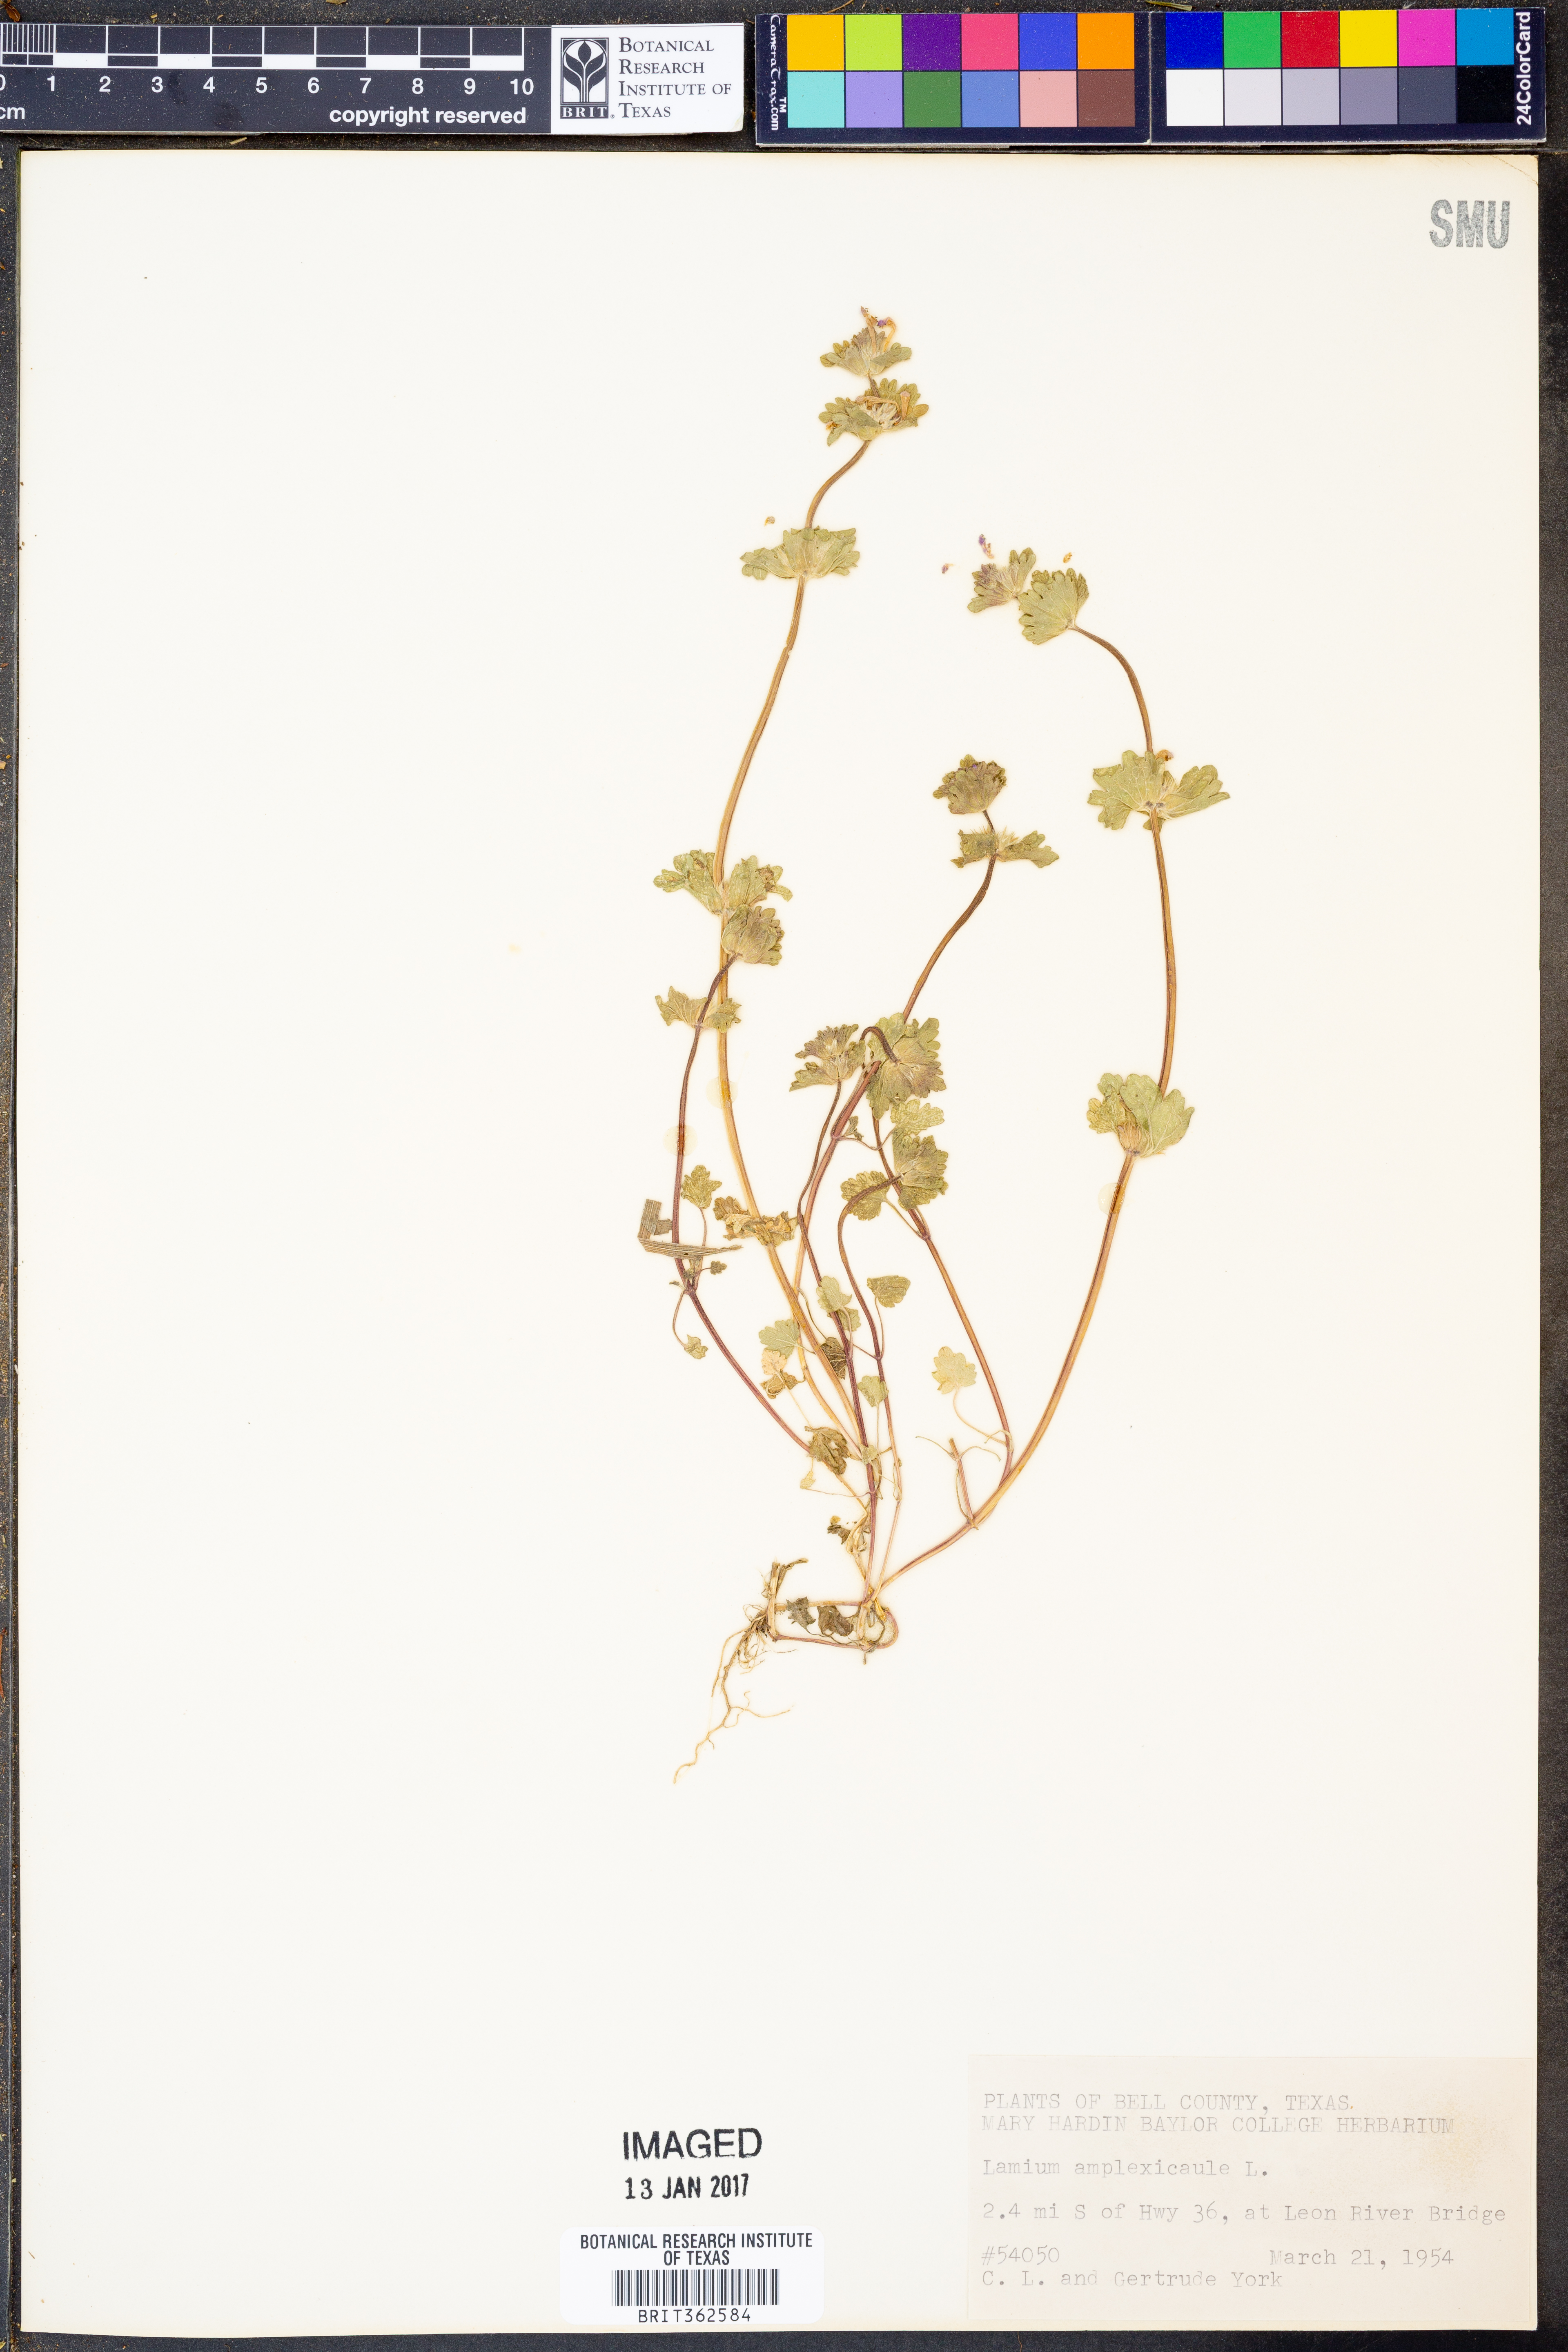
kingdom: Plantae
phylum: Tracheophyta
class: Magnoliopsida
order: Lamiales
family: Lamiaceae
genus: Lamium
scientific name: Lamium amplexicaule
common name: Henbit dead-nettle
